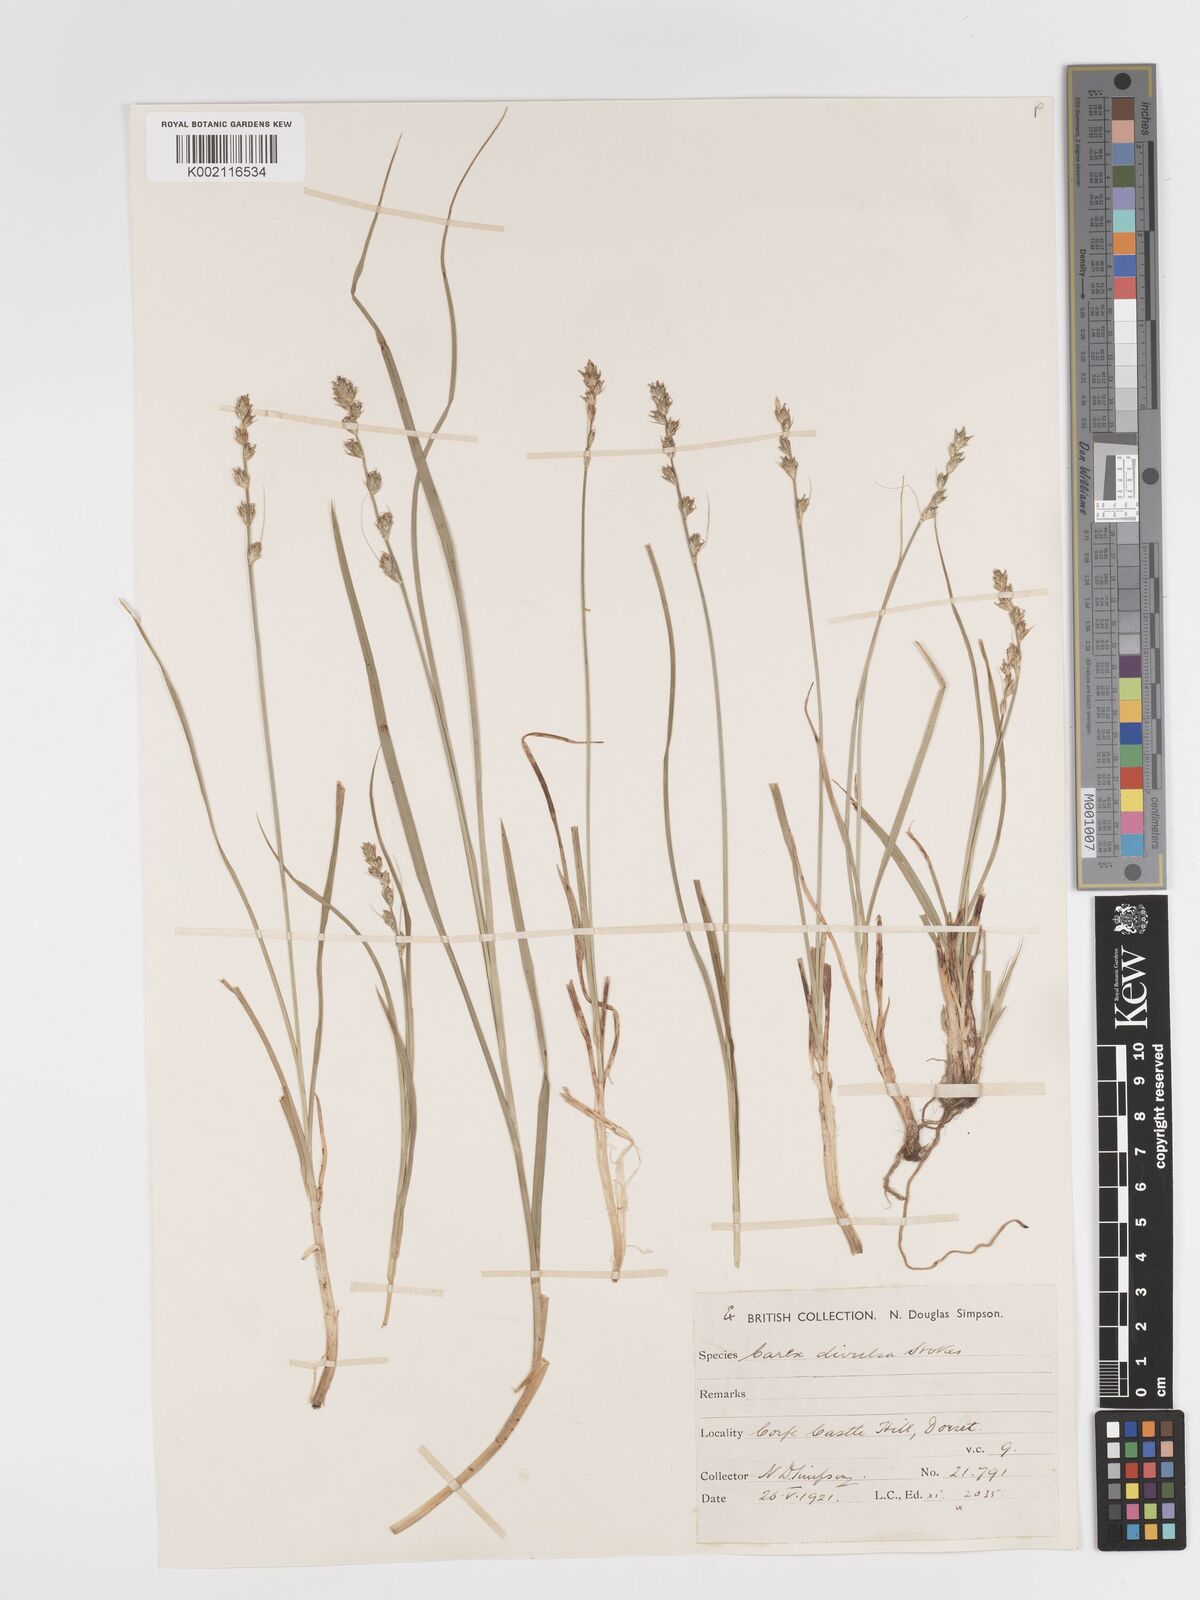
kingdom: Plantae
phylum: Tracheophyta
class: Liliopsida
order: Poales
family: Cyperaceae
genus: Carex
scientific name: Carex divulsa
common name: Grassland sedge
